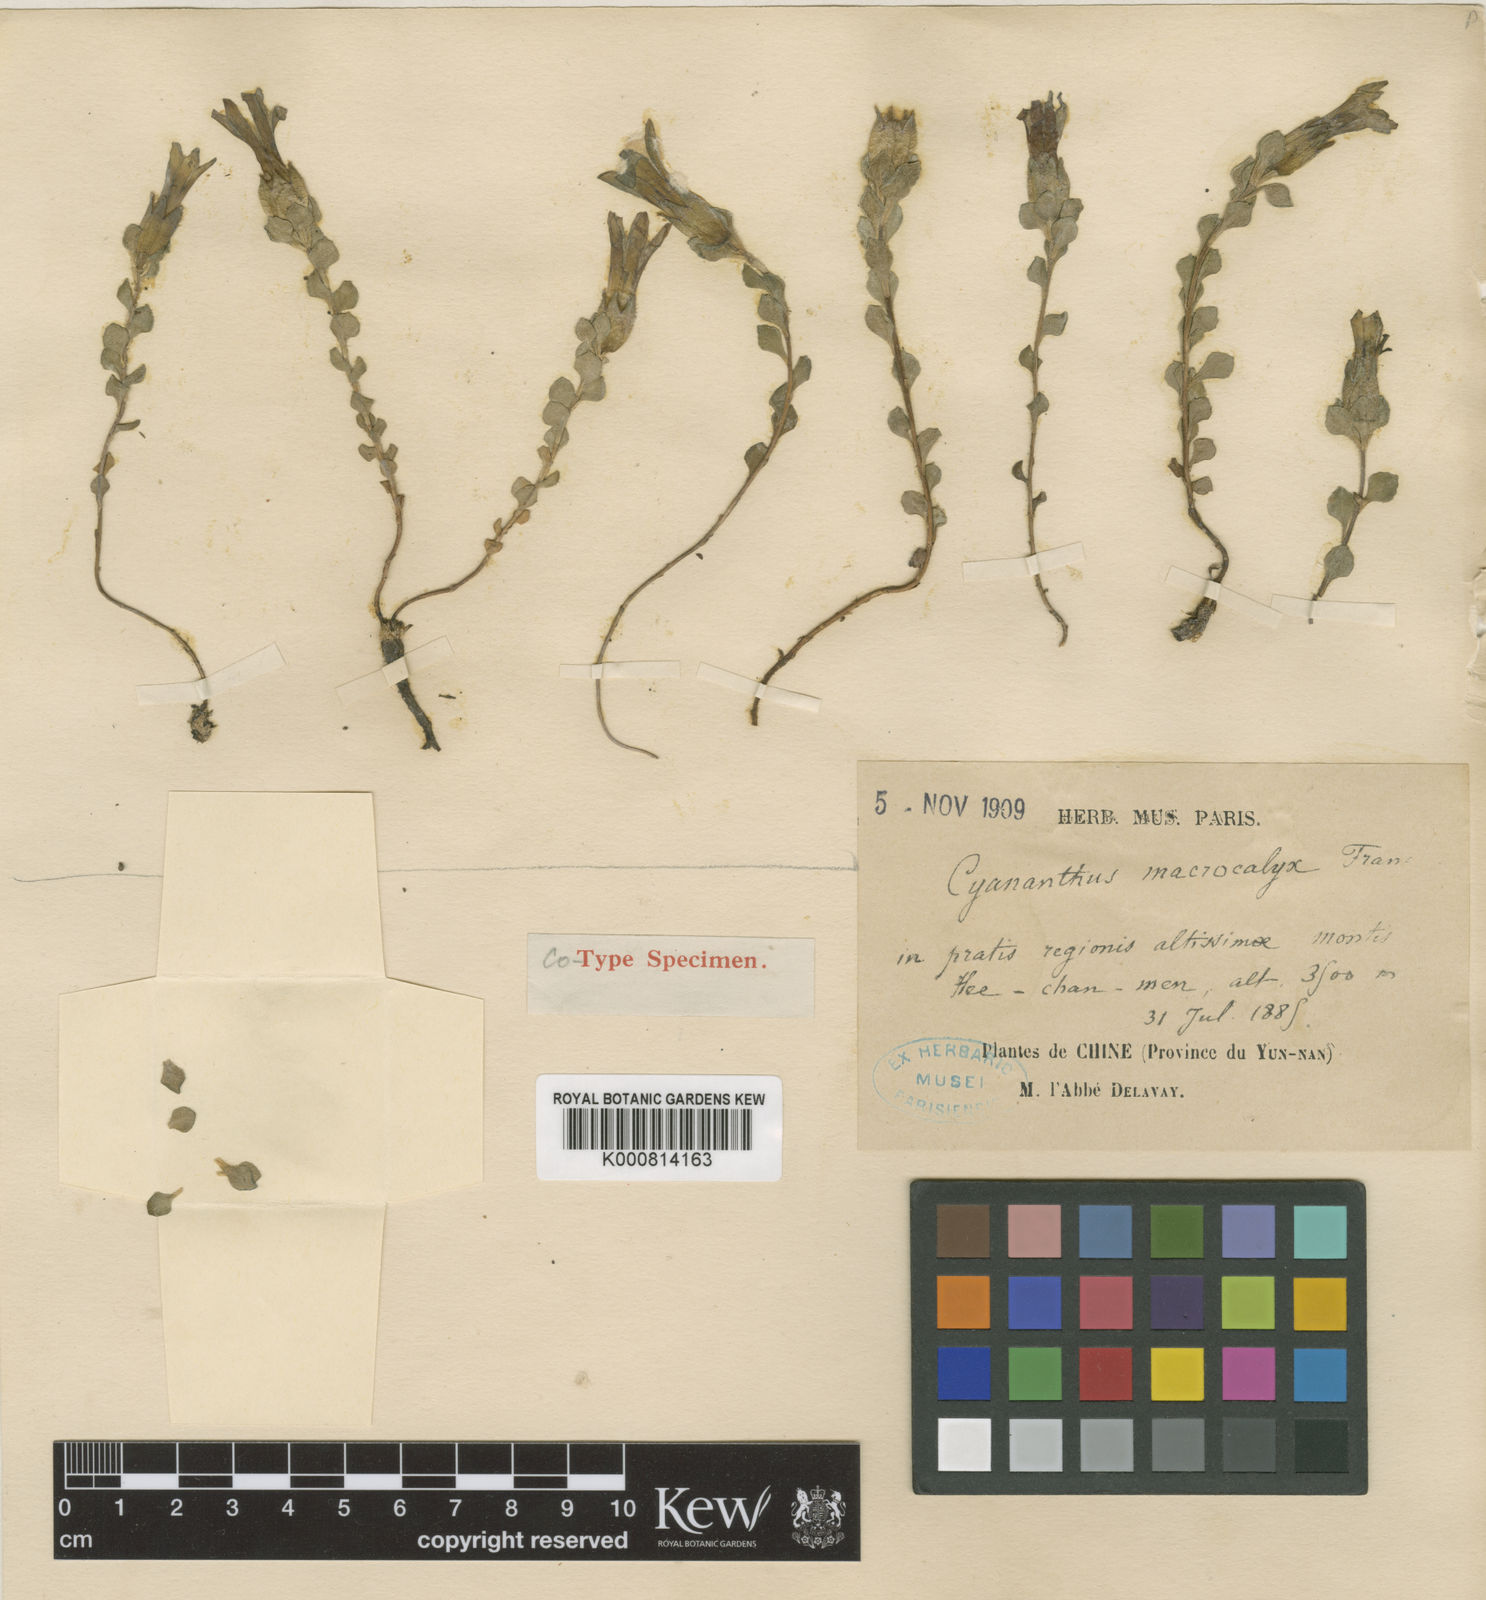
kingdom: Plantae
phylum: Tracheophyta
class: Magnoliopsida
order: Asterales
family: Campanulaceae
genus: Cyananthus
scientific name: Cyananthus macrocalyx
